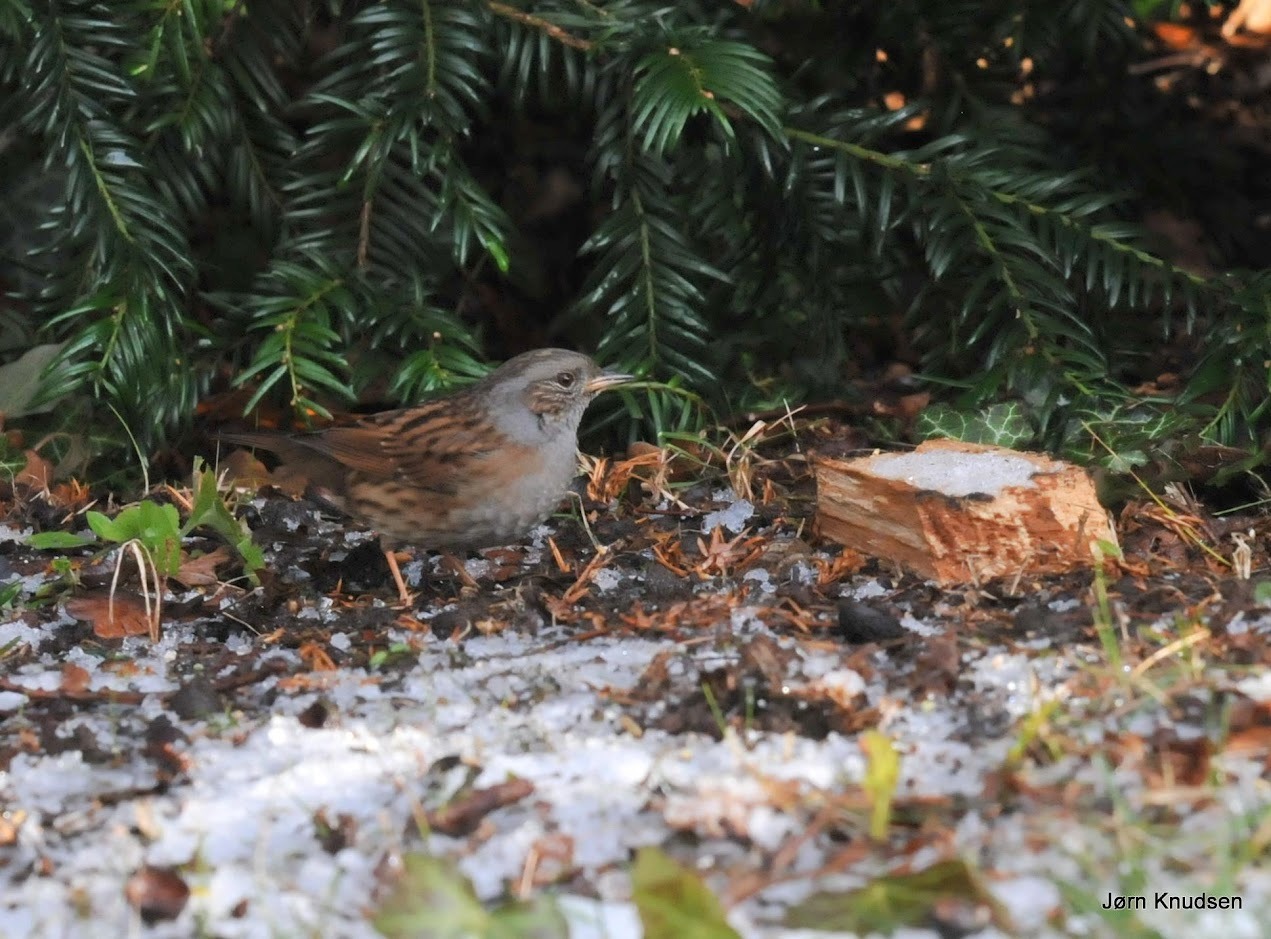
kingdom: Animalia
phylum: Chordata
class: Aves
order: Passeriformes
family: Prunellidae
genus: Prunella
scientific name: Prunella modularis
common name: Jernspurv
